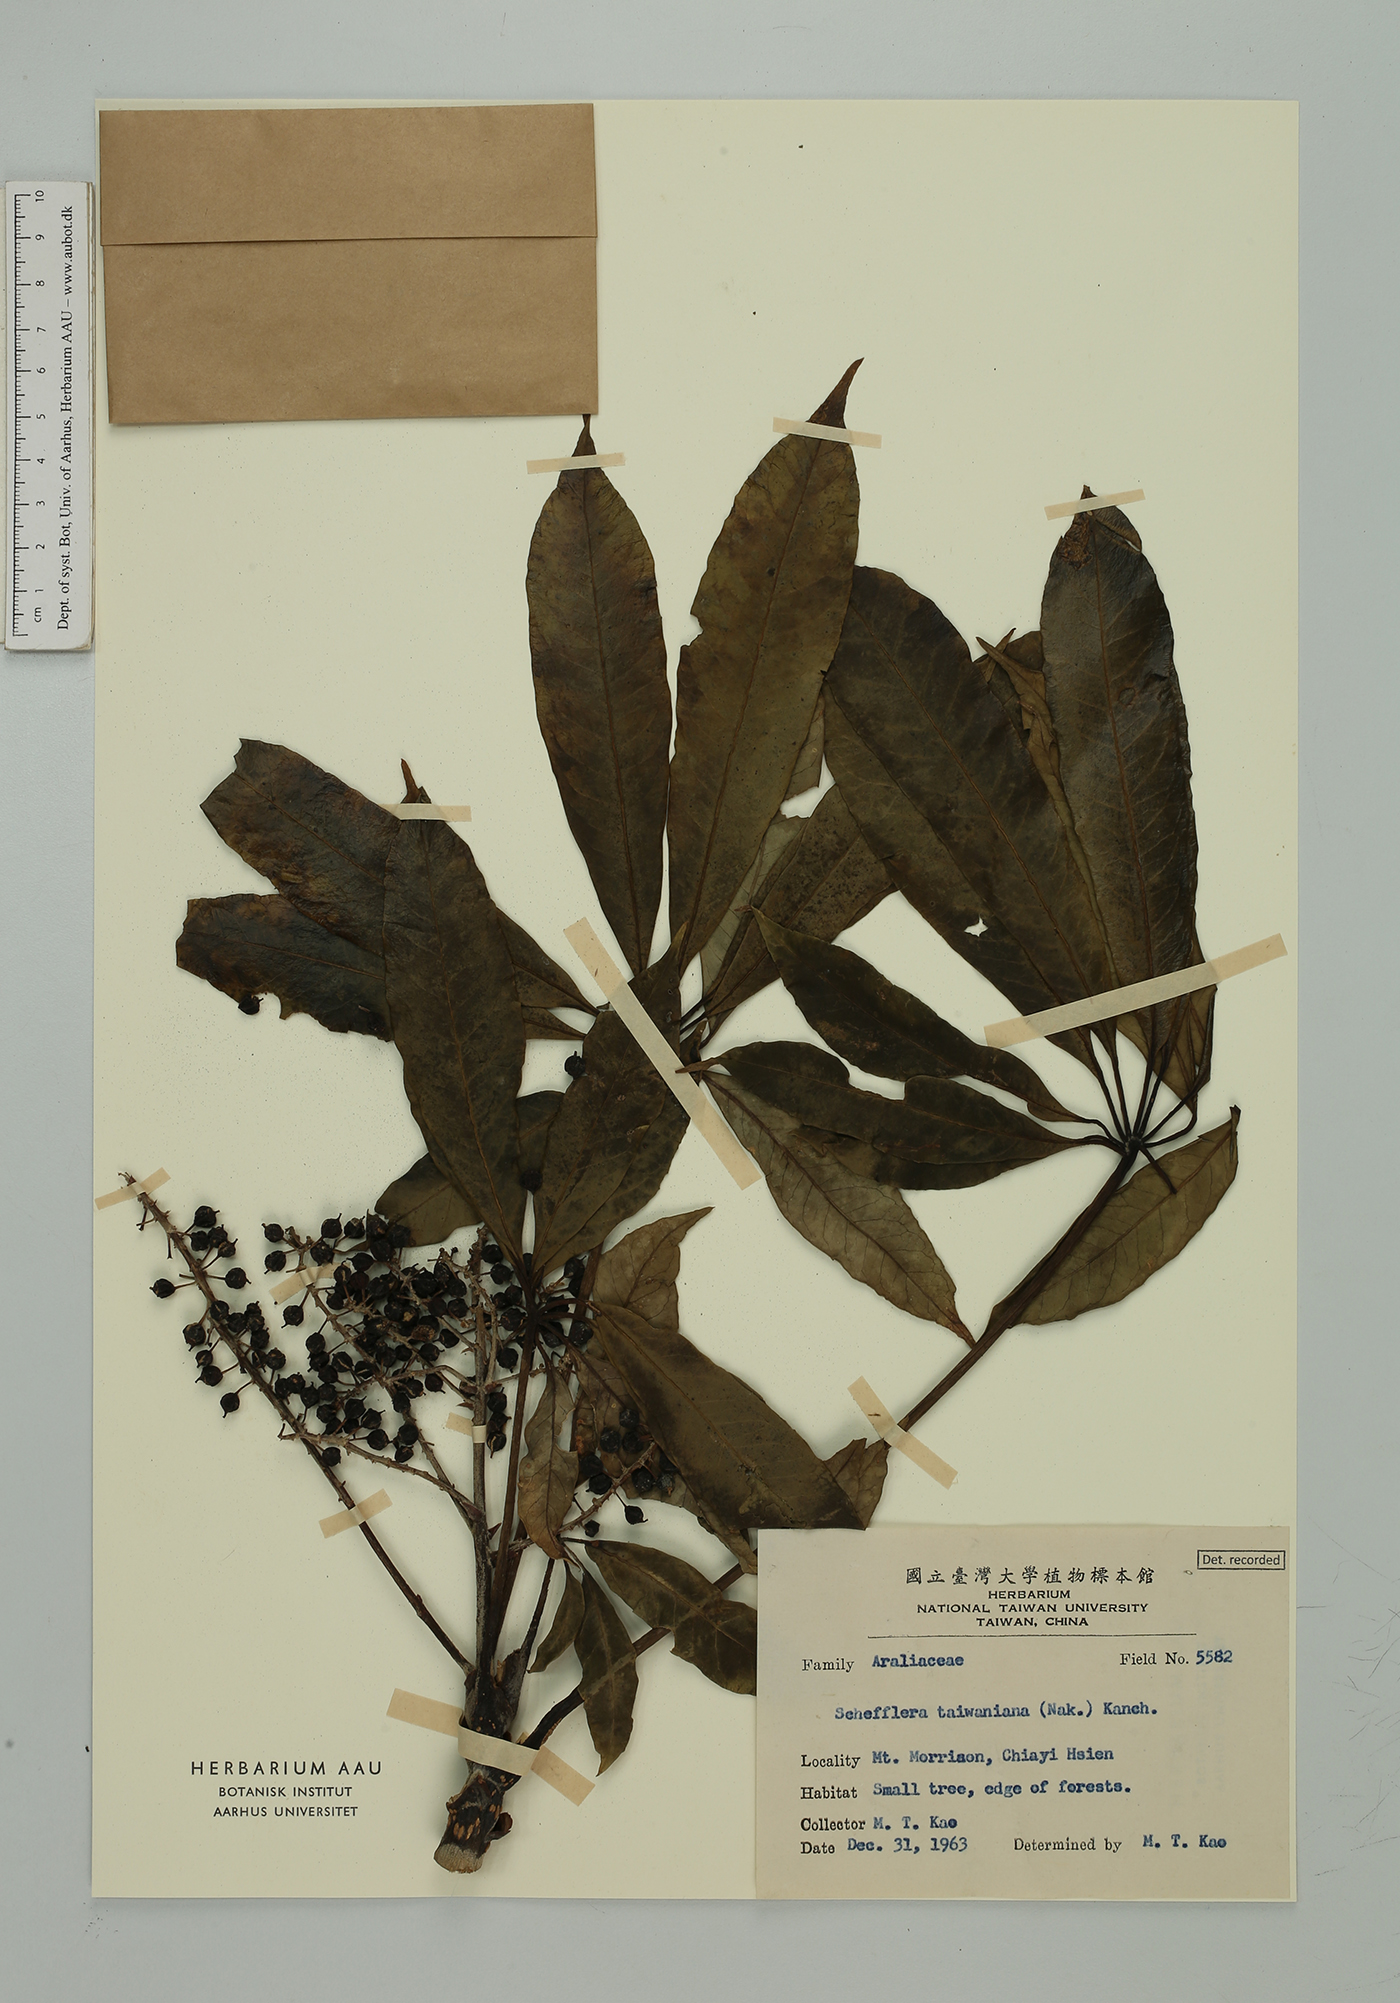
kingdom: Plantae
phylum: Tracheophyta
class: Magnoliopsida
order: Apiales
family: Araliaceae
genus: Heptapleurum
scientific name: Heptapleurum taiwanianum
